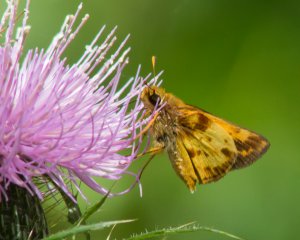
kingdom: Animalia
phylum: Arthropoda
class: Insecta
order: Lepidoptera
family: Hesperiidae
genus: Lon
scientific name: Lon zabulon
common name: Zabulon Skipper
